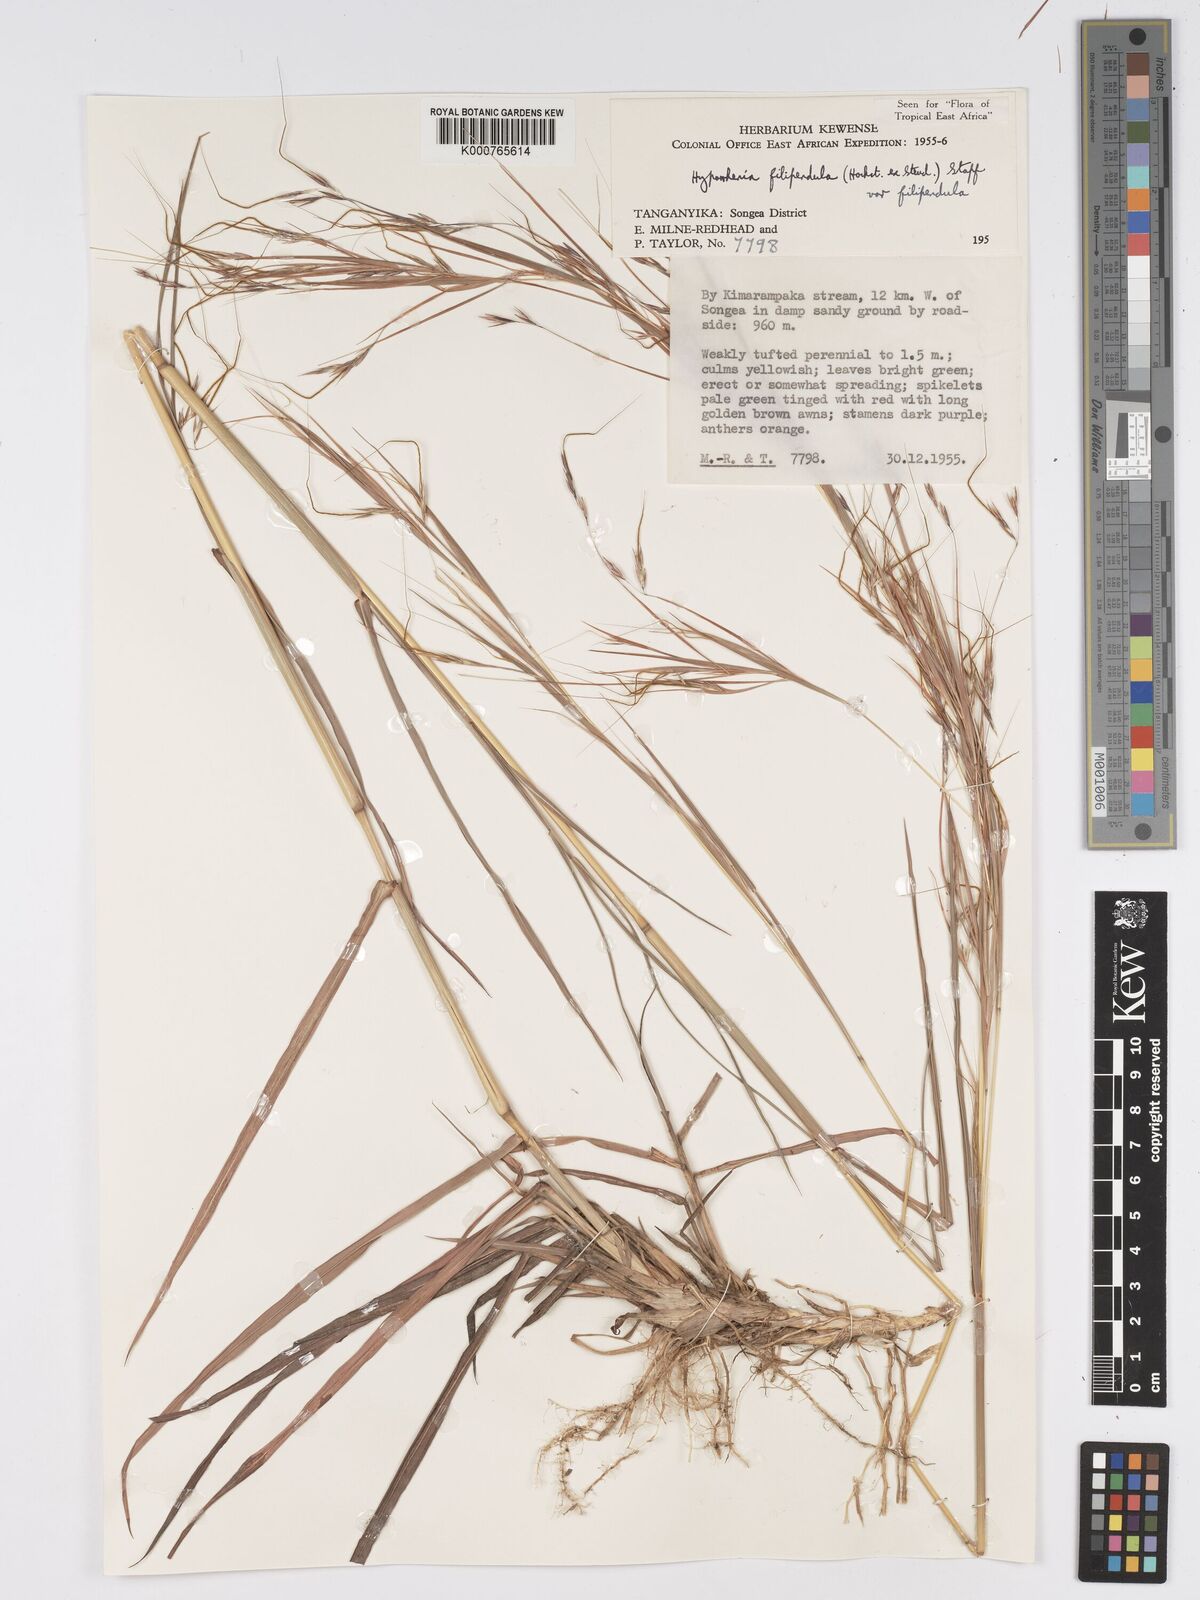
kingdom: Plantae
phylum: Tracheophyta
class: Liliopsida
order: Poales
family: Poaceae
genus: Hyparrhenia
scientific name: Hyparrhenia filipendula
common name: Tambookie grass
